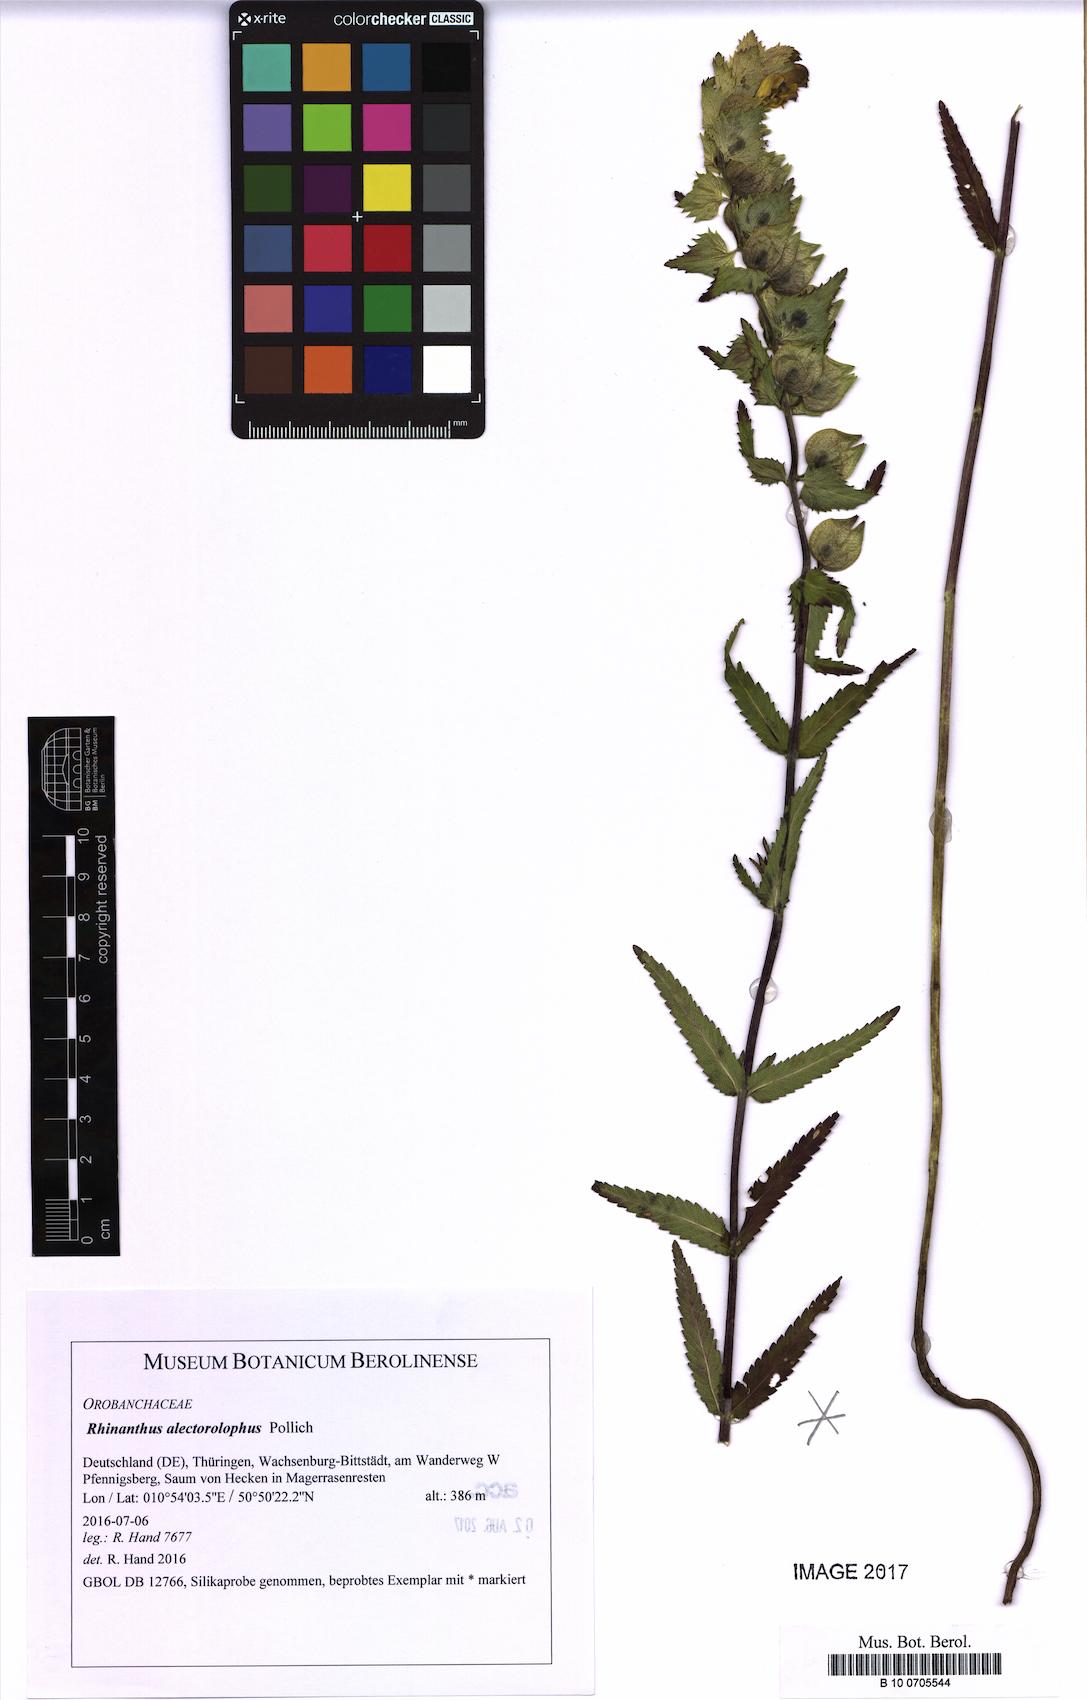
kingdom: Plantae
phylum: Tracheophyta
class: Magnoliopsida
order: Lamiales
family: Orobanchaceae
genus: Rhinanthus
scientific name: Rhinanthus alectorolophus
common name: Greater yellow-rattle
